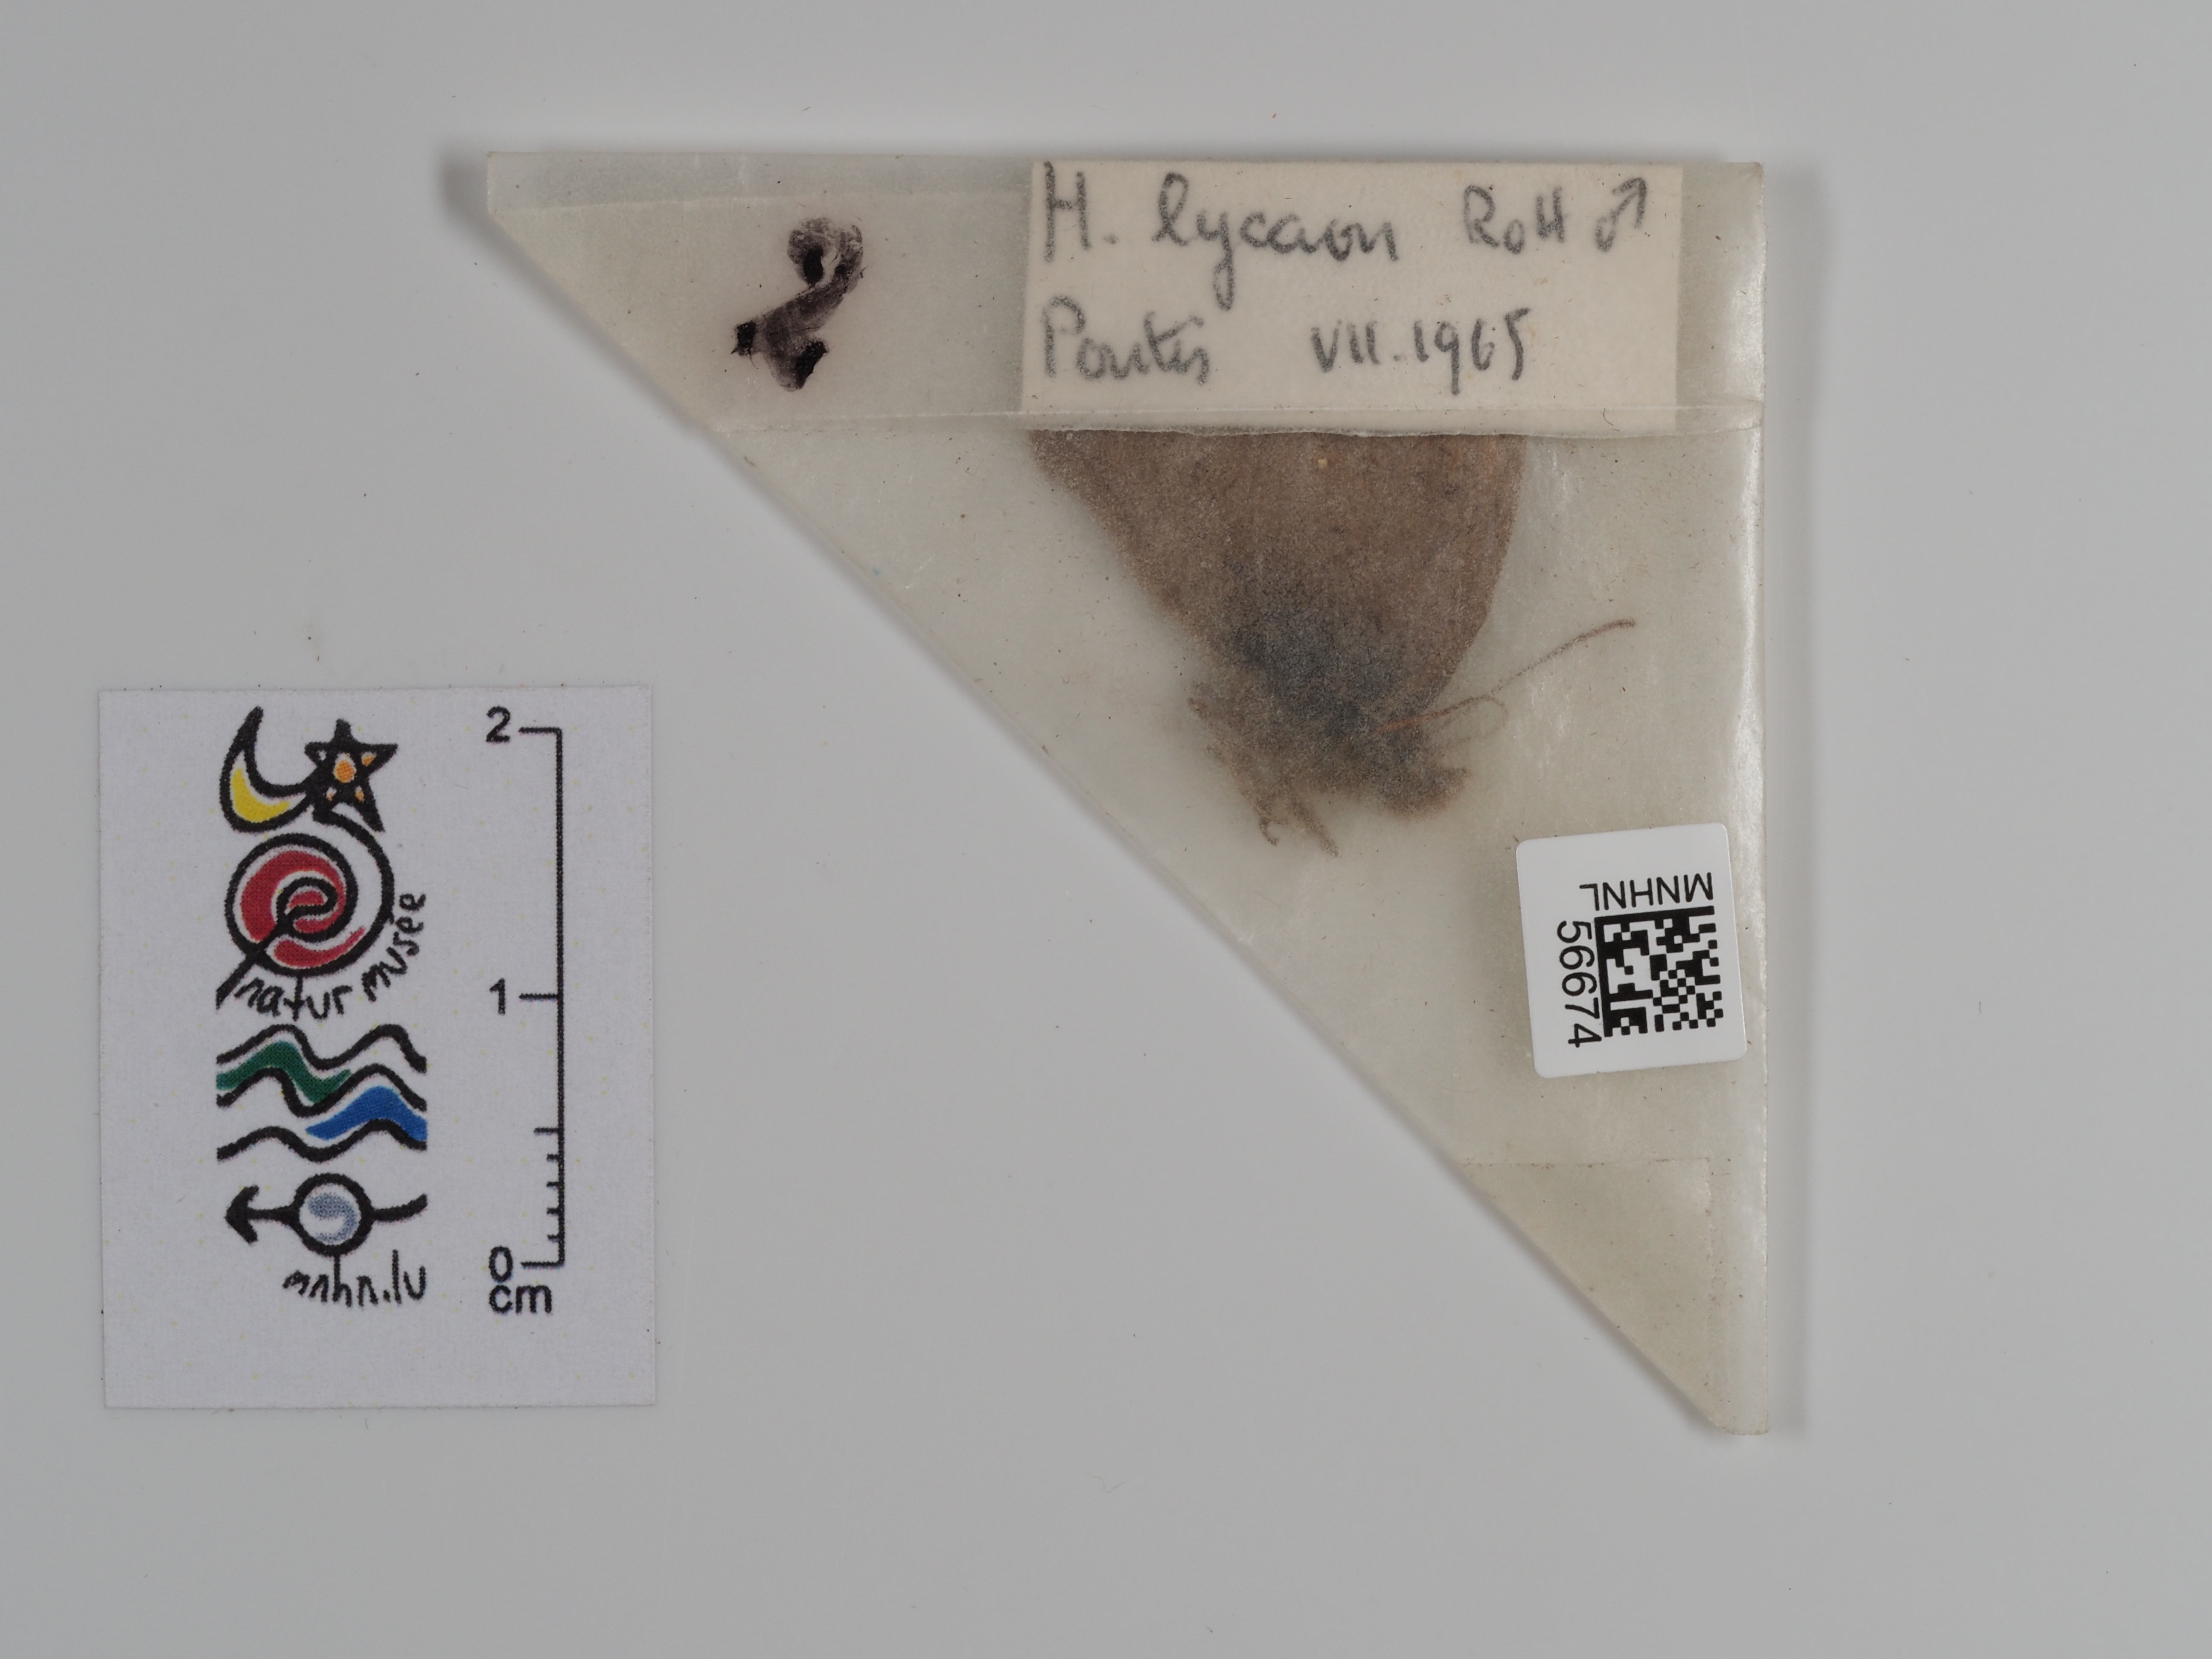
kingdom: Animalia
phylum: Arthropoda
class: Insecta
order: Lepidoptera
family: Nymphalidae
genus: Hyponephele
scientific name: Hyponephele lycaon
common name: Dusky meadow brown
